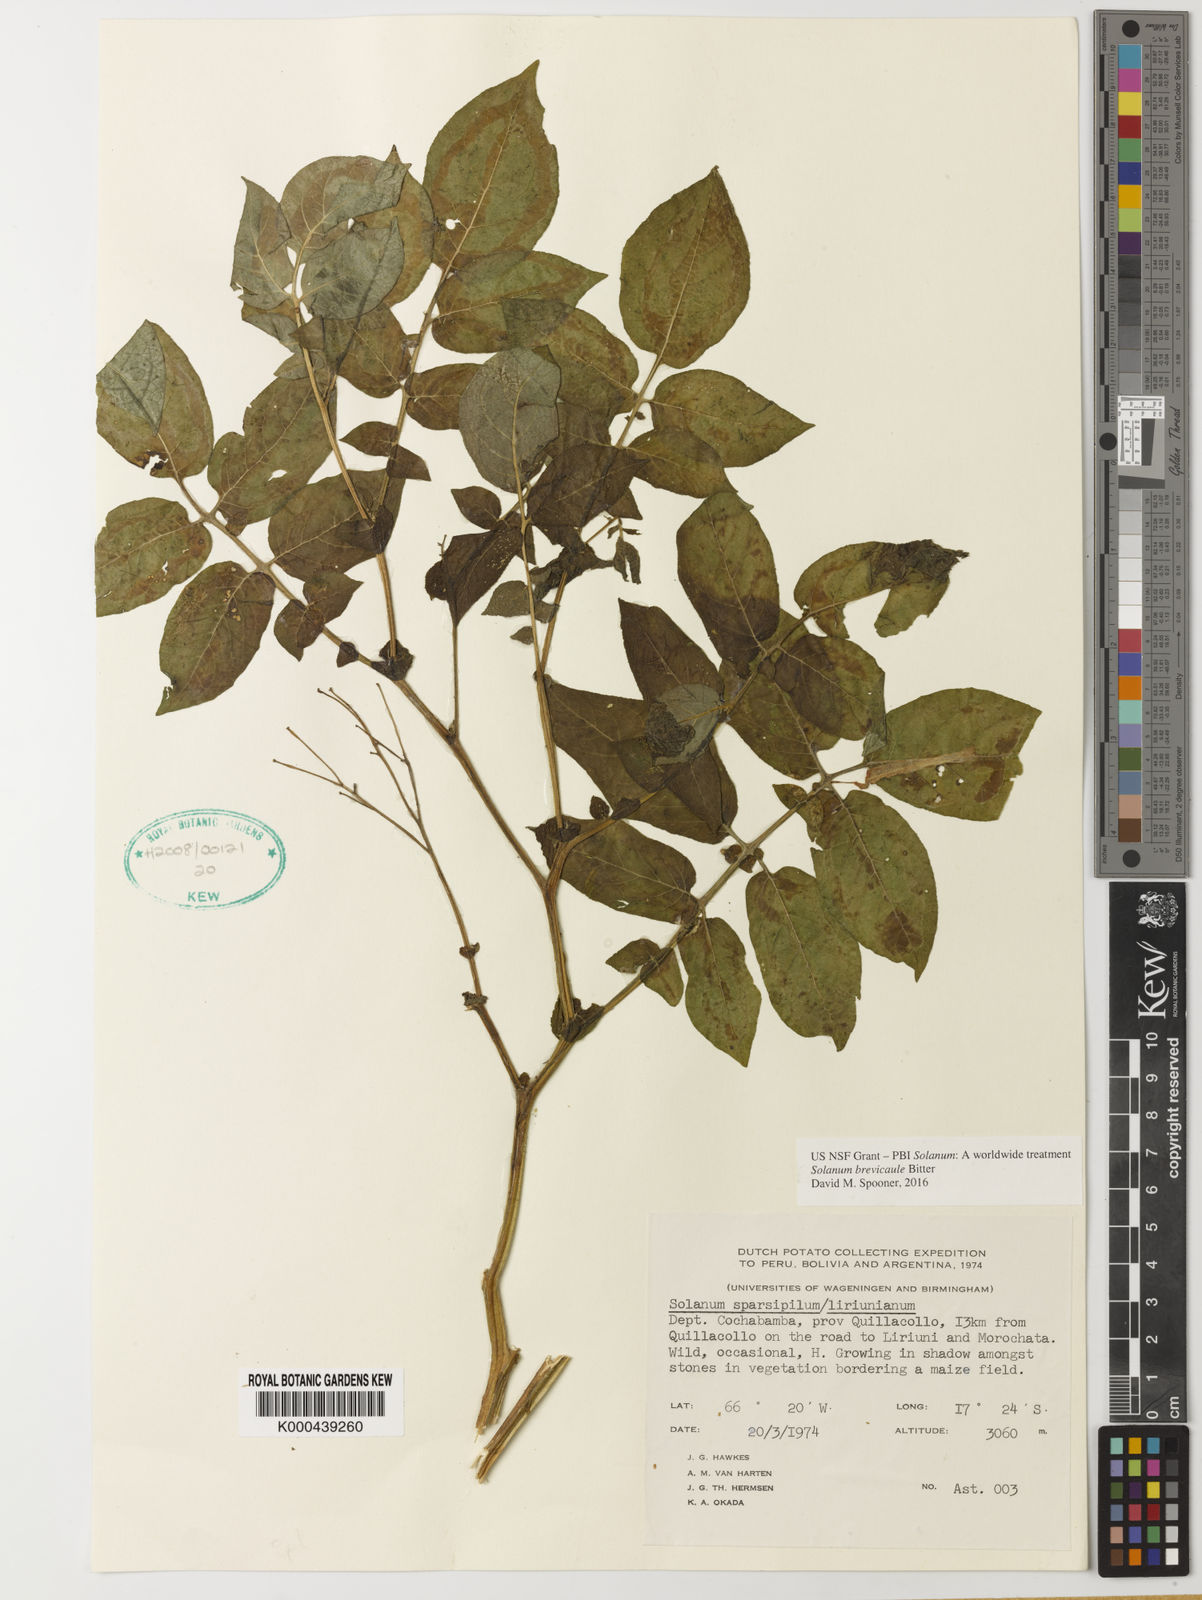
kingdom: Plantae
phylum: Tracheophyta
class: Magnoliopsida
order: Solanales
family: Solanaceae
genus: Solanum
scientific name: Solanum brevicaule
